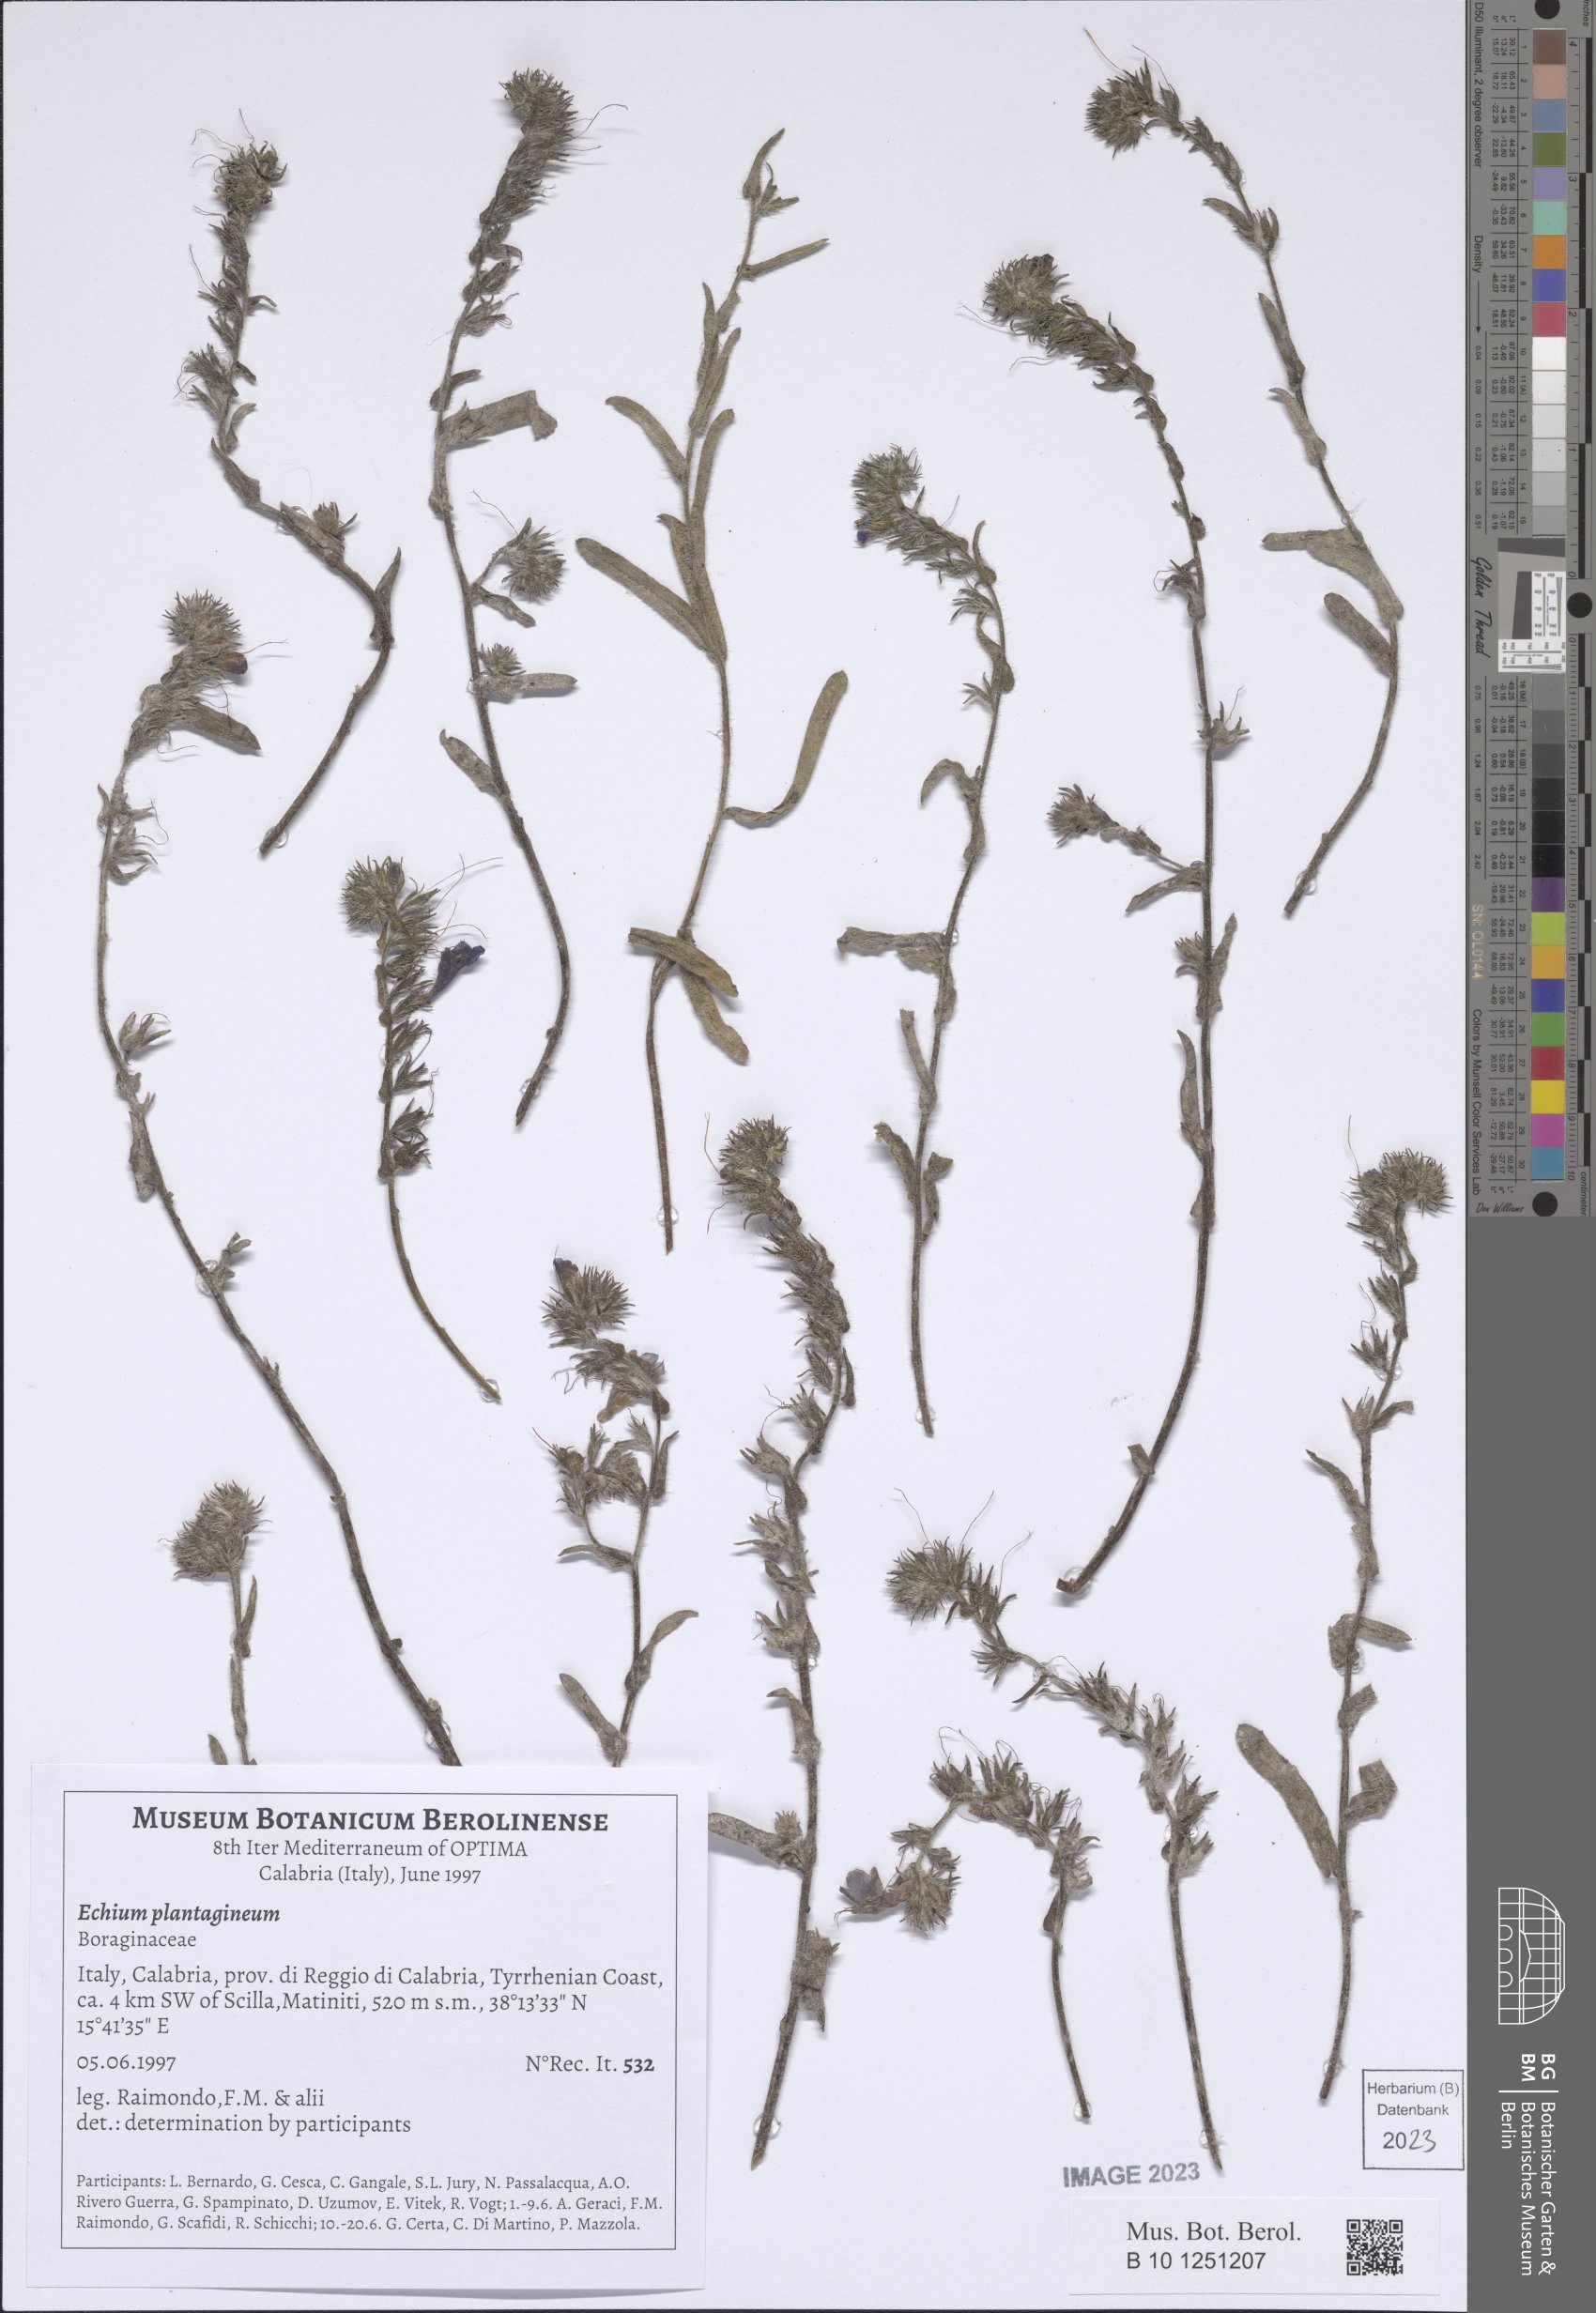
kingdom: Plantae
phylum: Tracheophyta
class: Magnoliopsida
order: Boraginales
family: Boraginaceae
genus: Echium
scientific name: Echium plantagineum
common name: Purple viper's-bugloss
